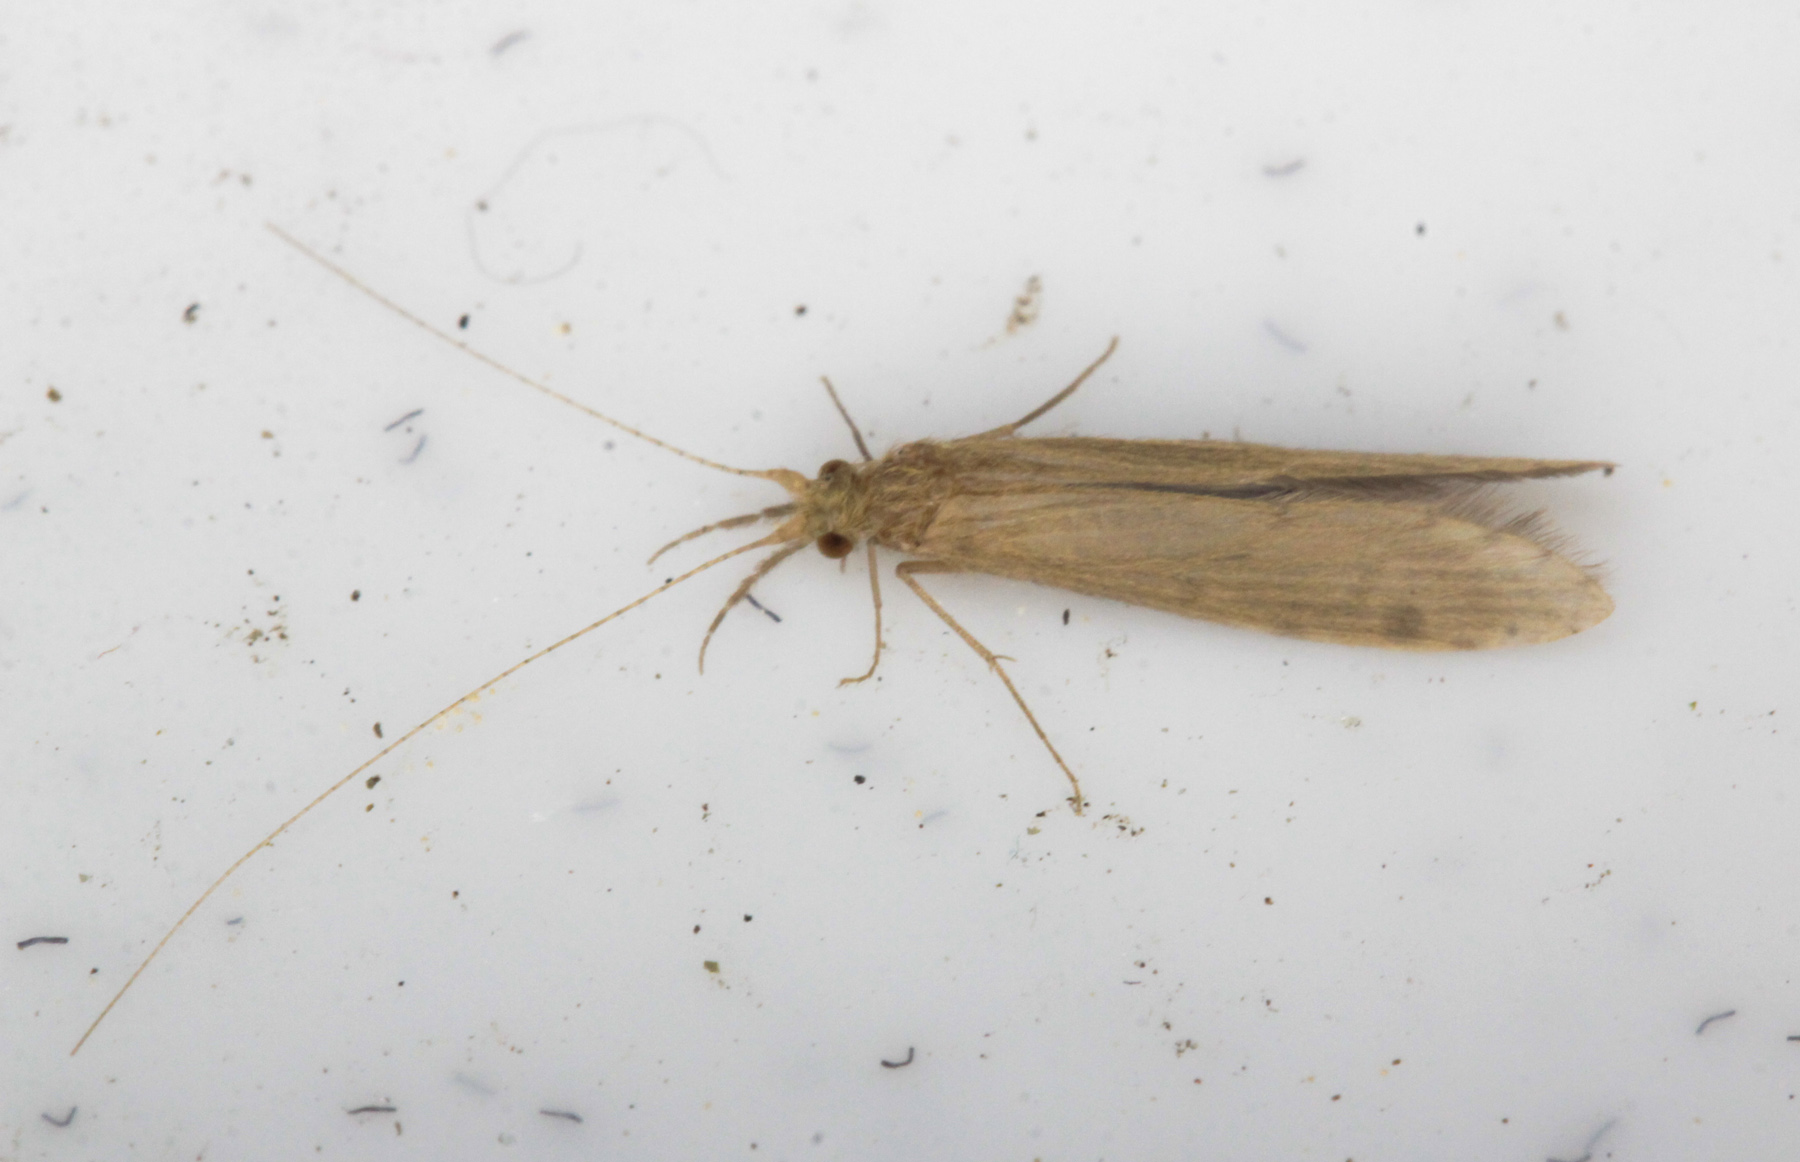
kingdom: Animalia
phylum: Arthropoda
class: Insecta
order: Trichoptera
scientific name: Trichoptera
